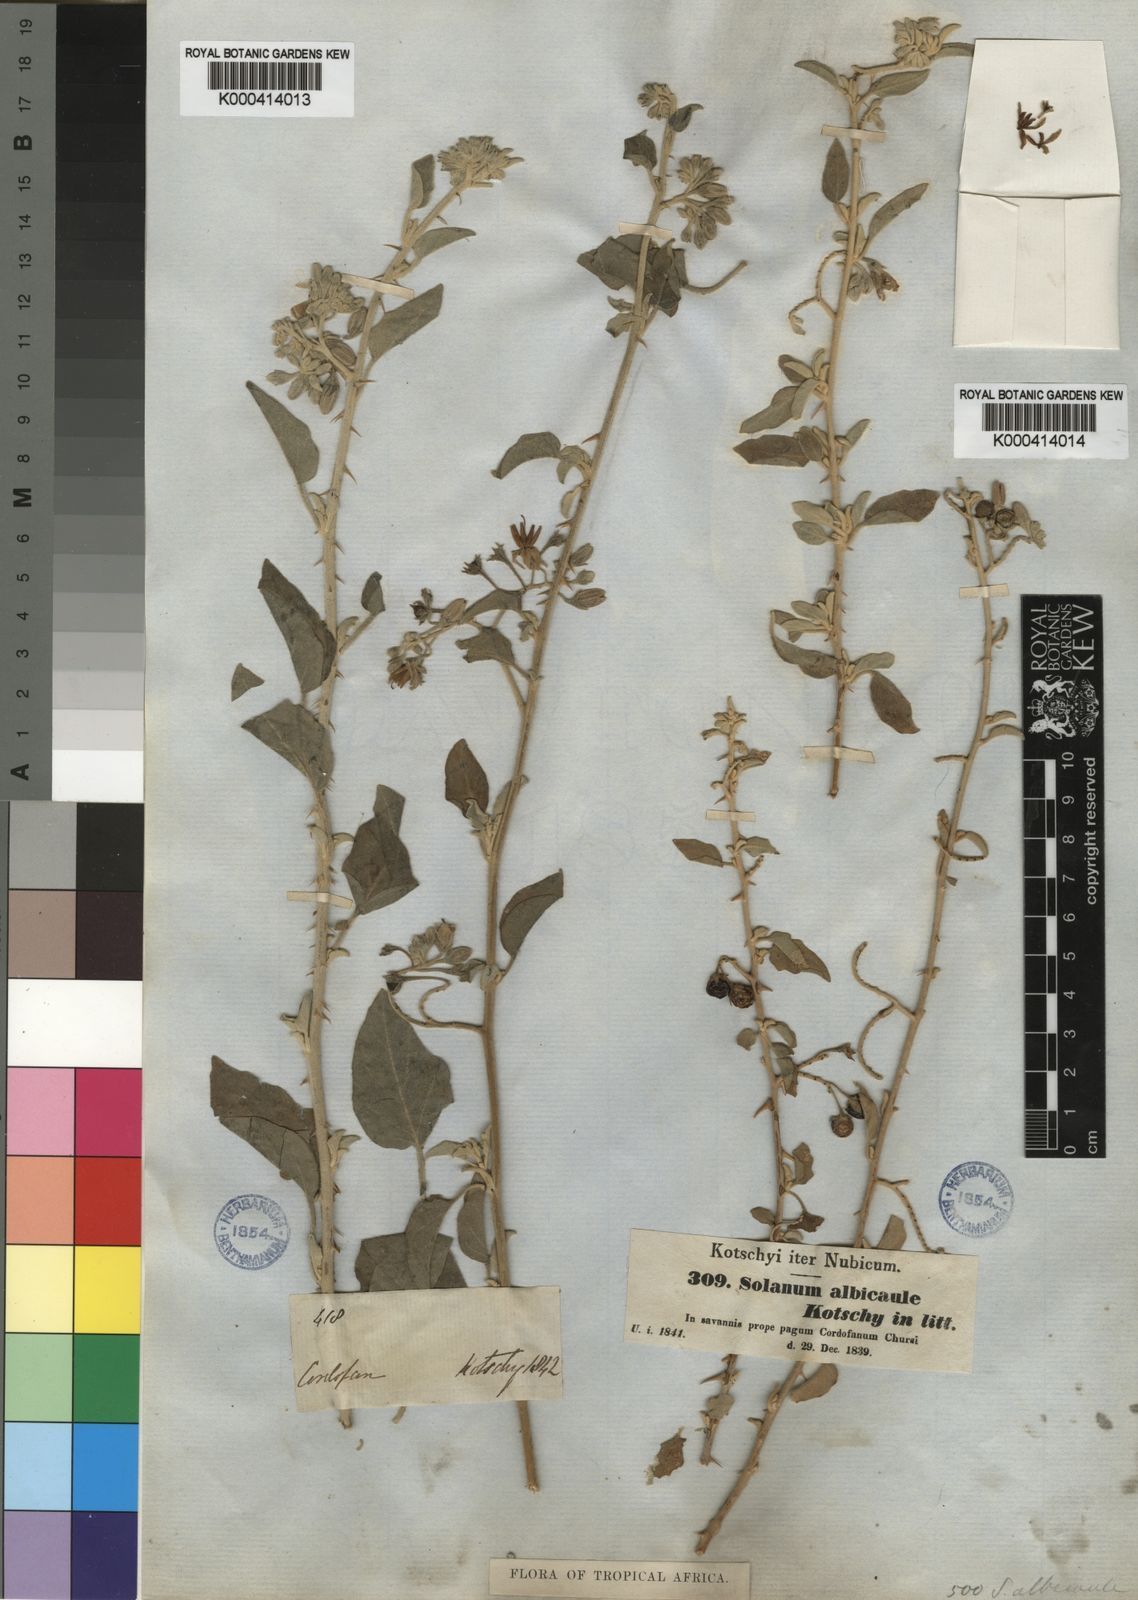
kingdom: Plantae
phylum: Tracheophyta
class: Magnoliopsida
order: Solanales
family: Solanaceae
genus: Solanum
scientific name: Solanum forsskaolii
